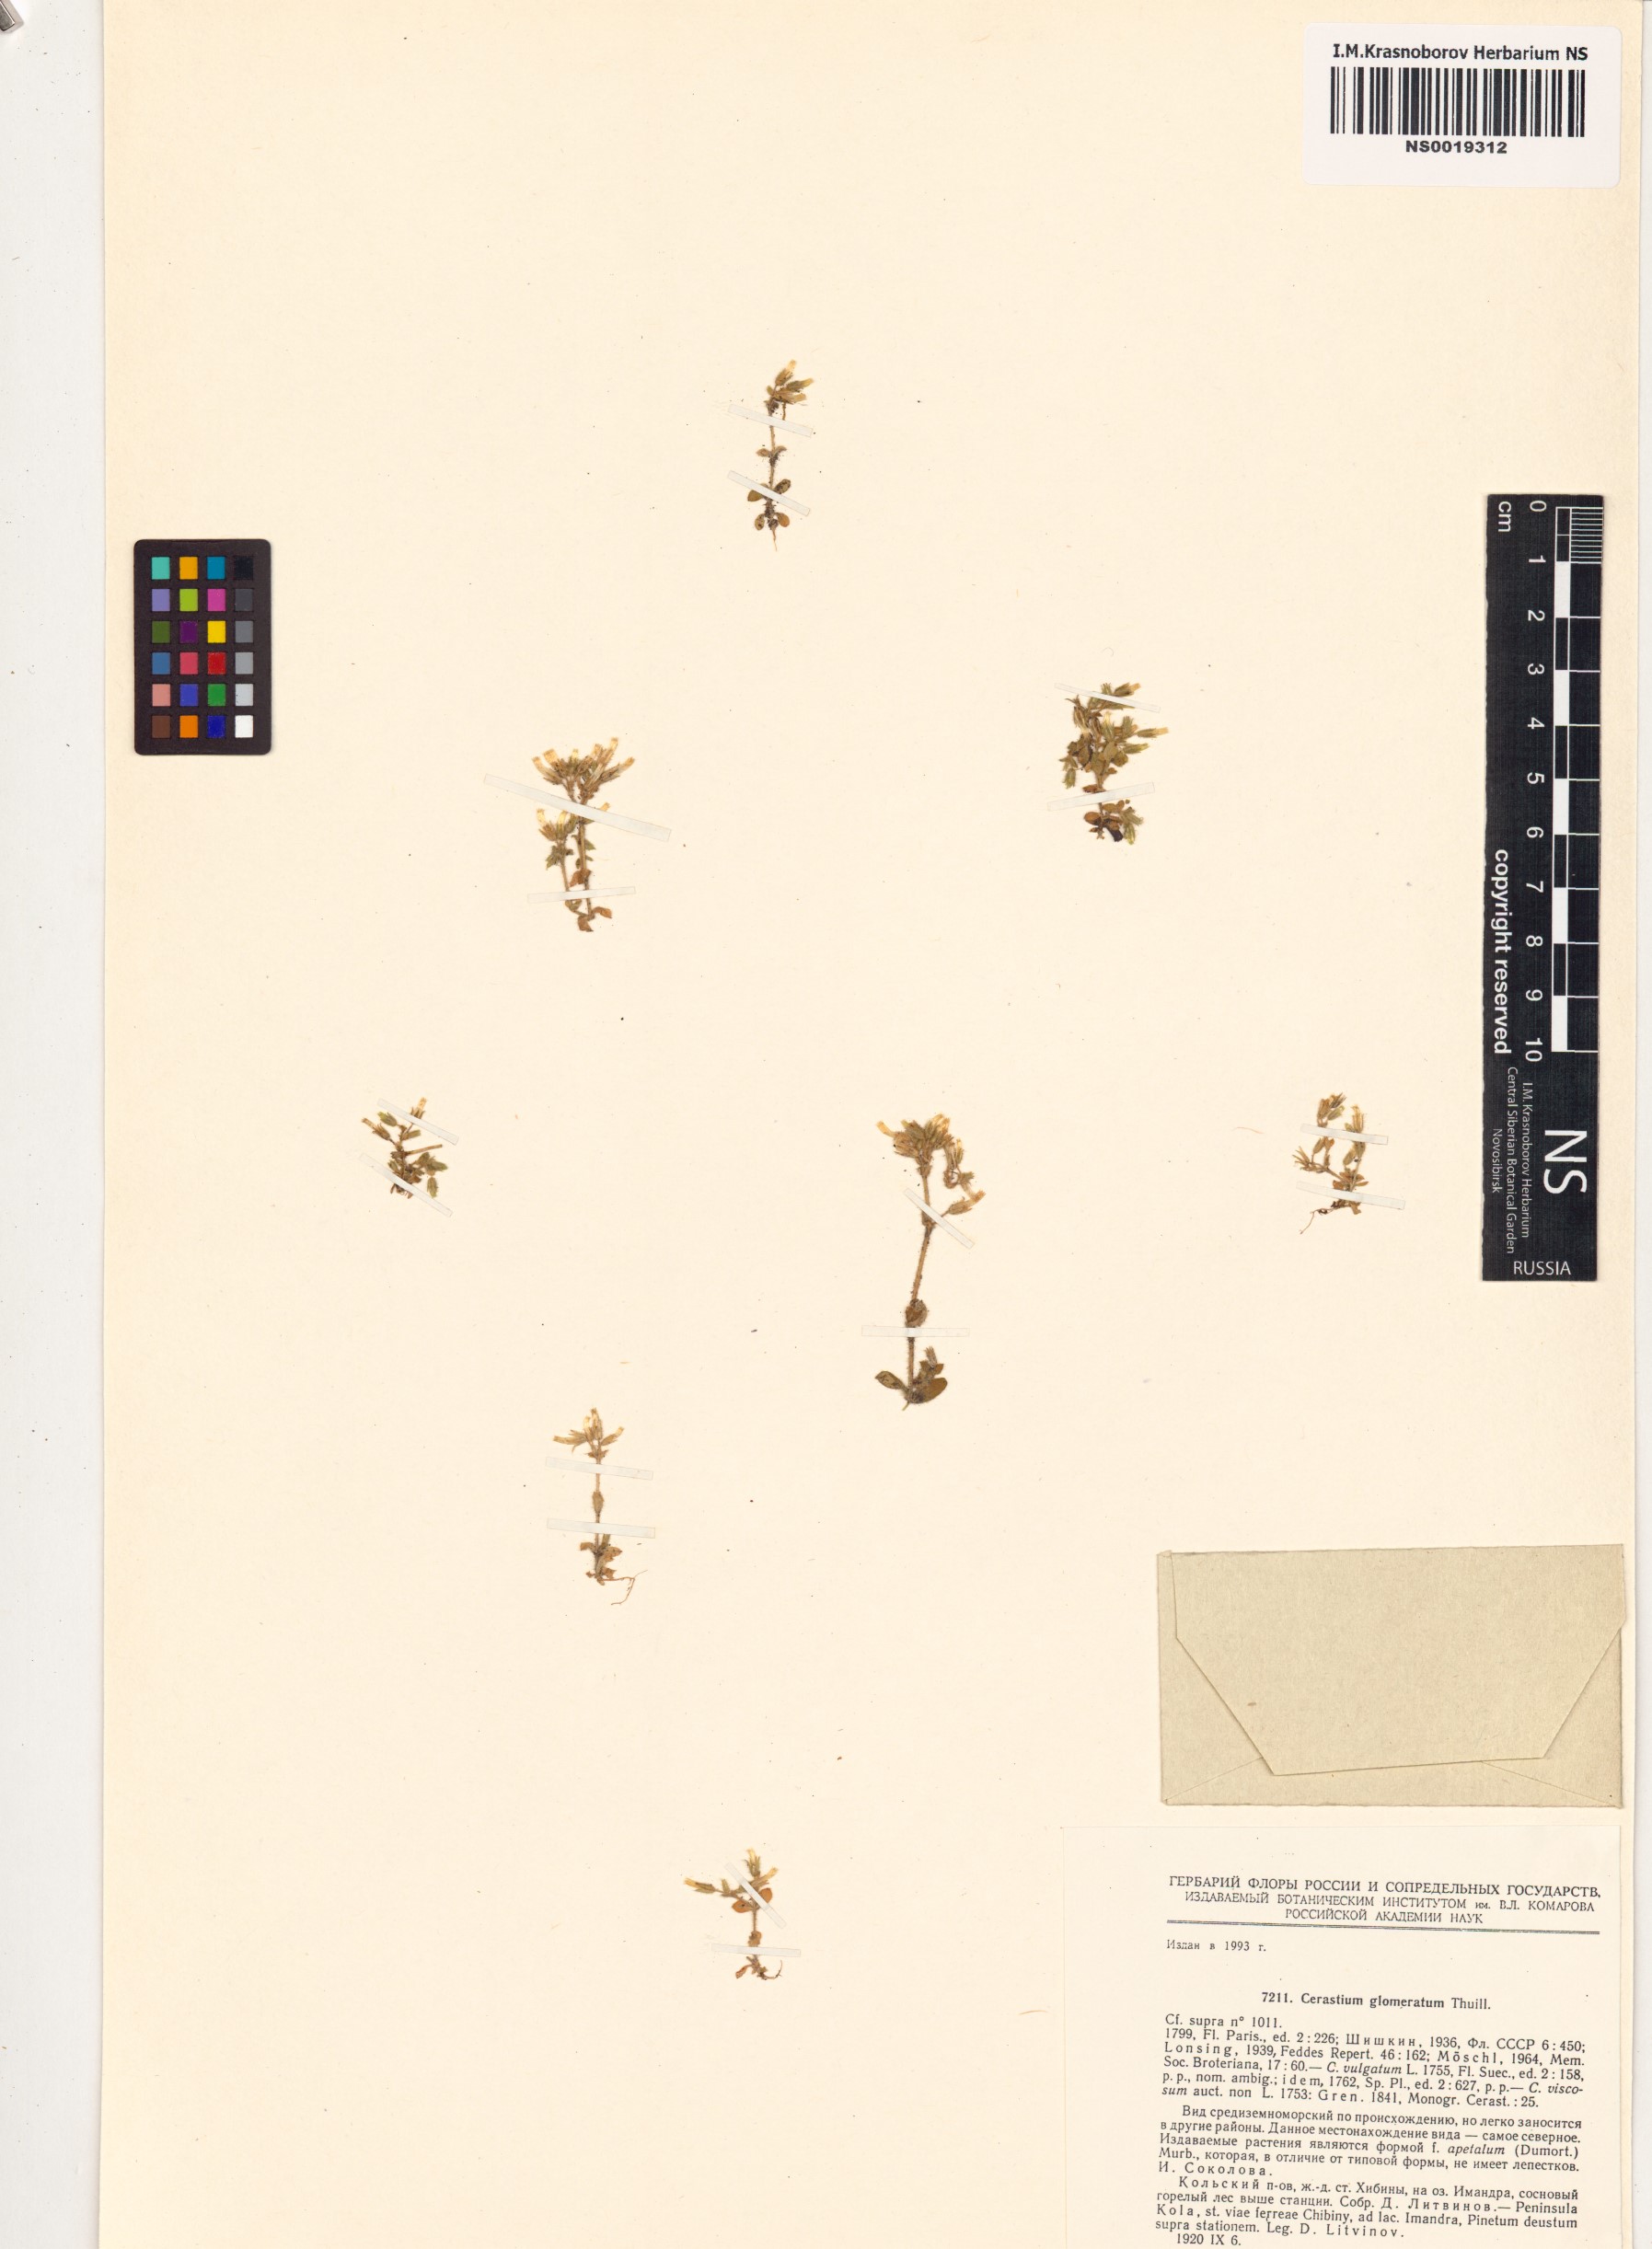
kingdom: Plantae
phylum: Tracheophyta
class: Magnoliopsida
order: Caryophyllales
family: Caryophyllaceae
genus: Cerastium
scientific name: Cerastium glomeratum
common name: Sticky chickweed
